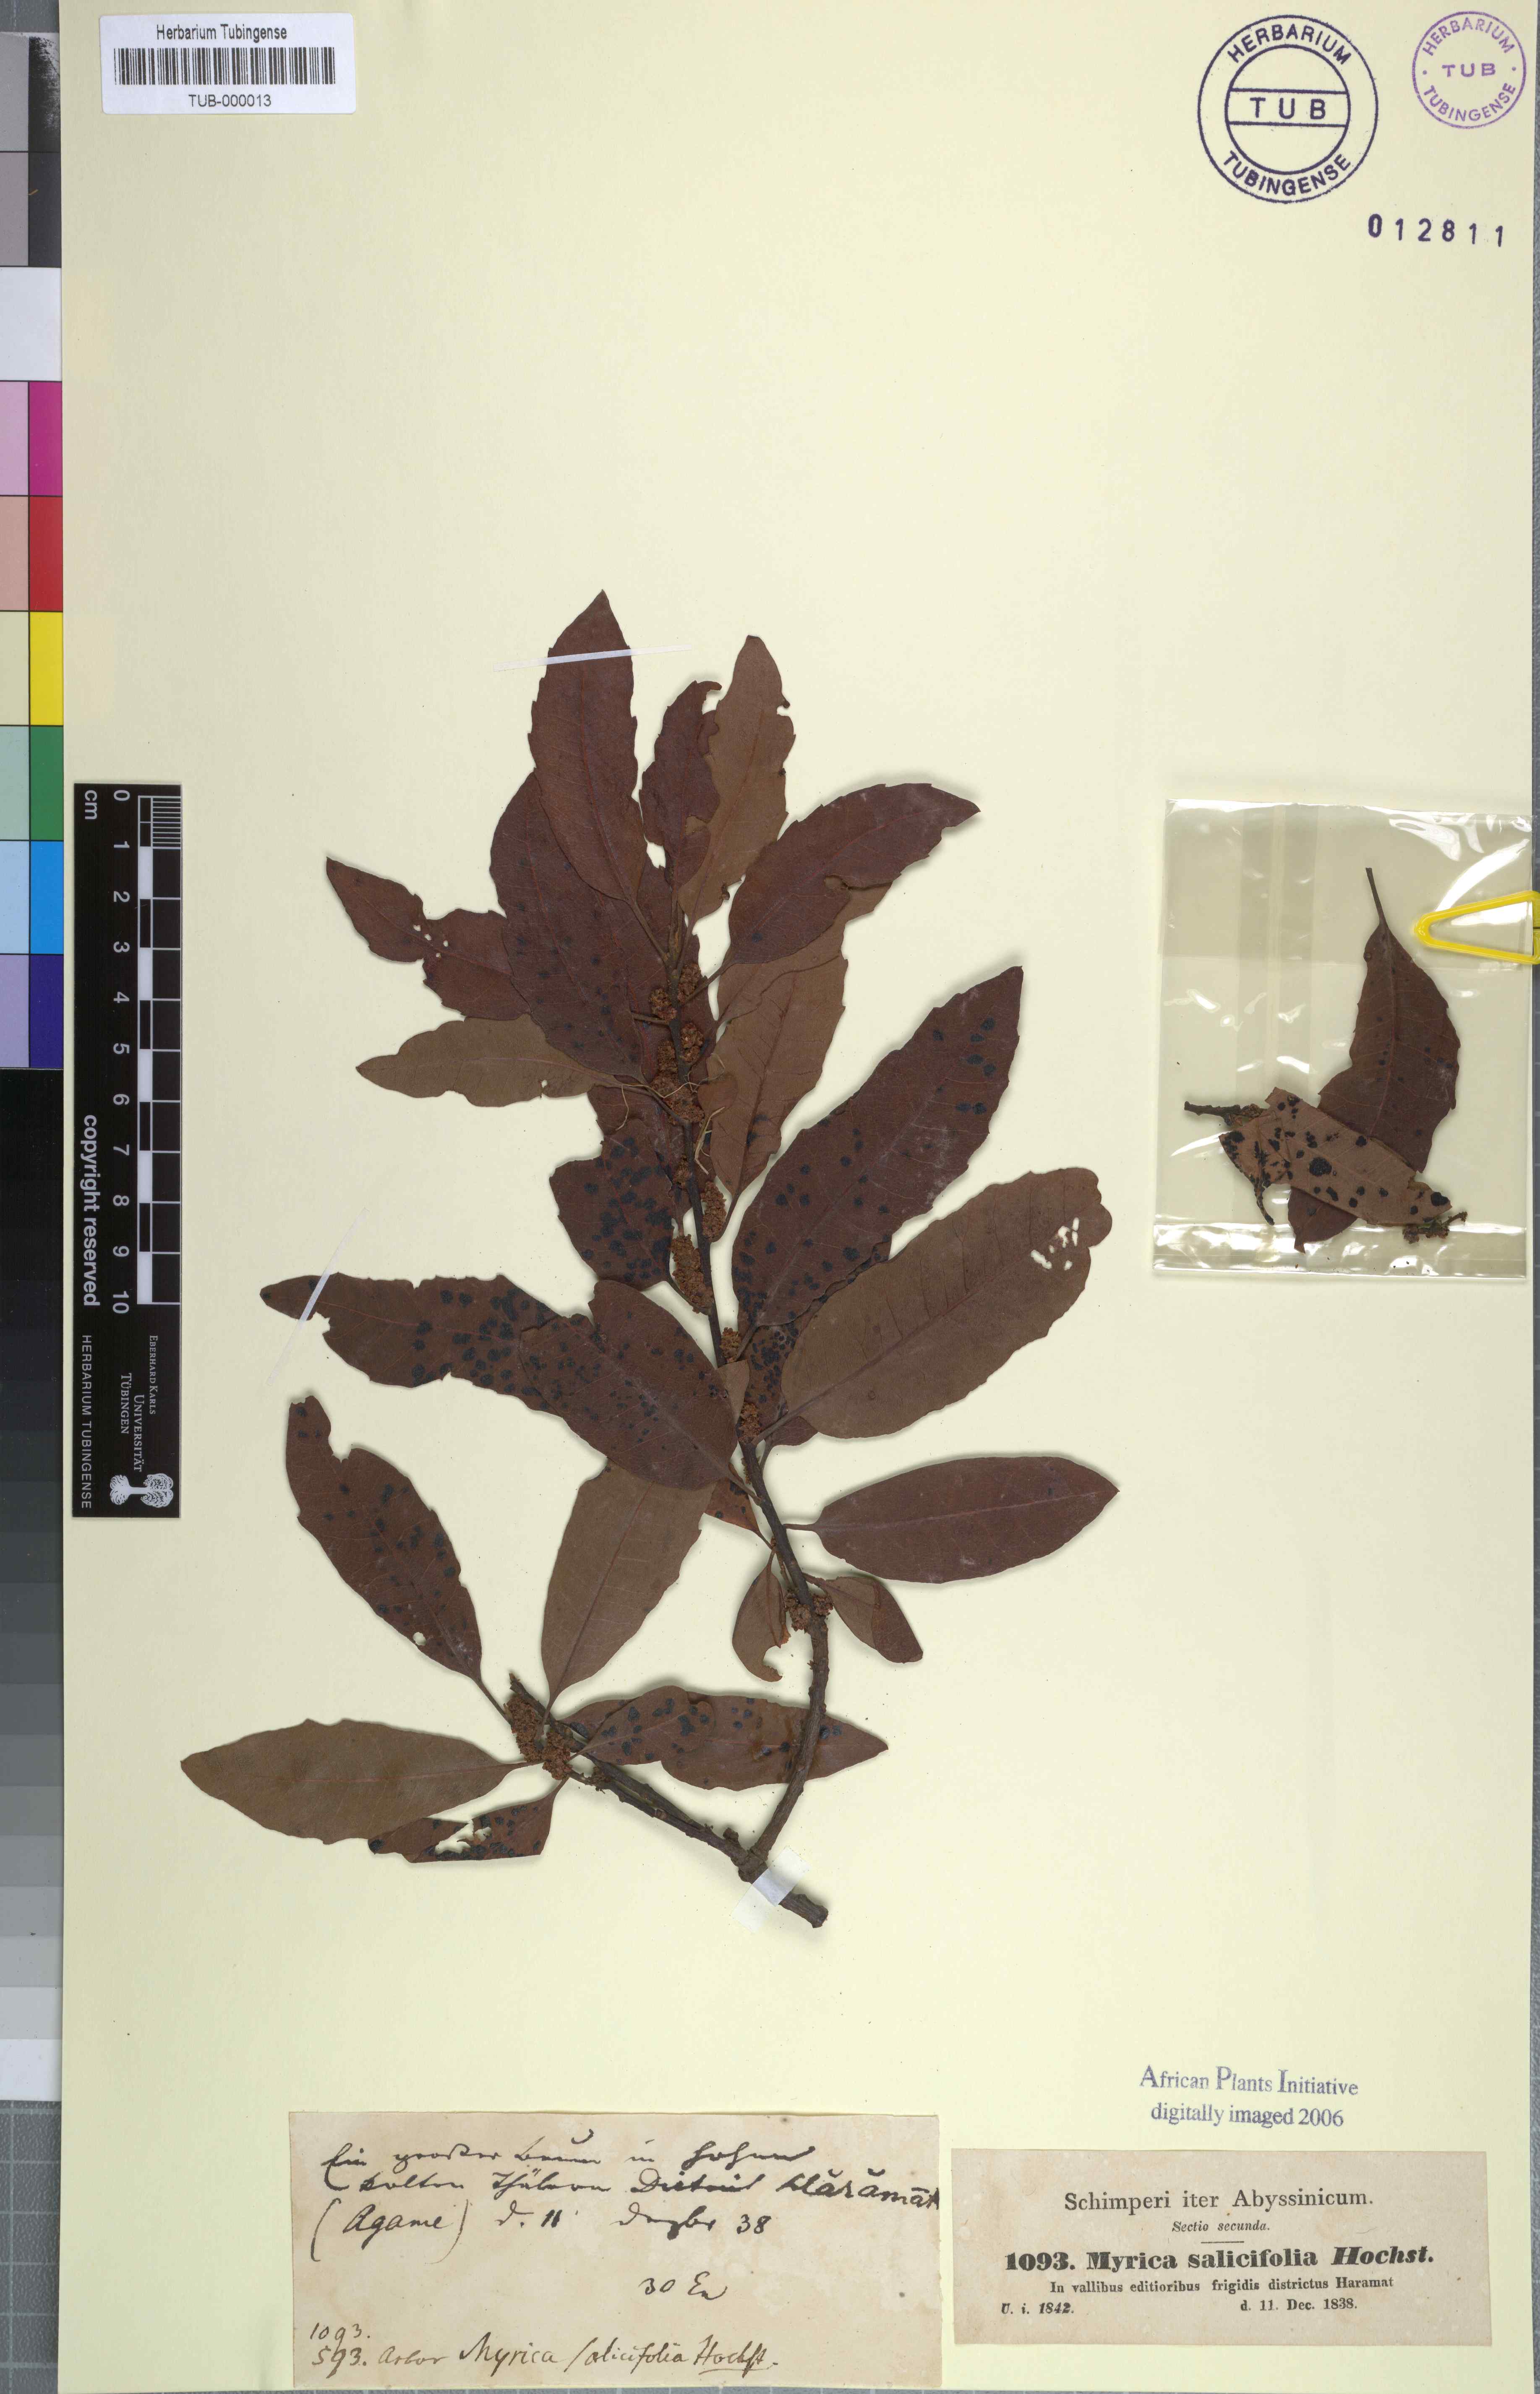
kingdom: Plantae
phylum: Tracheophyta
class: Magnoliopsida
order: Fagales
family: Myricaceae
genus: Morella
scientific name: Morella salicifolia
